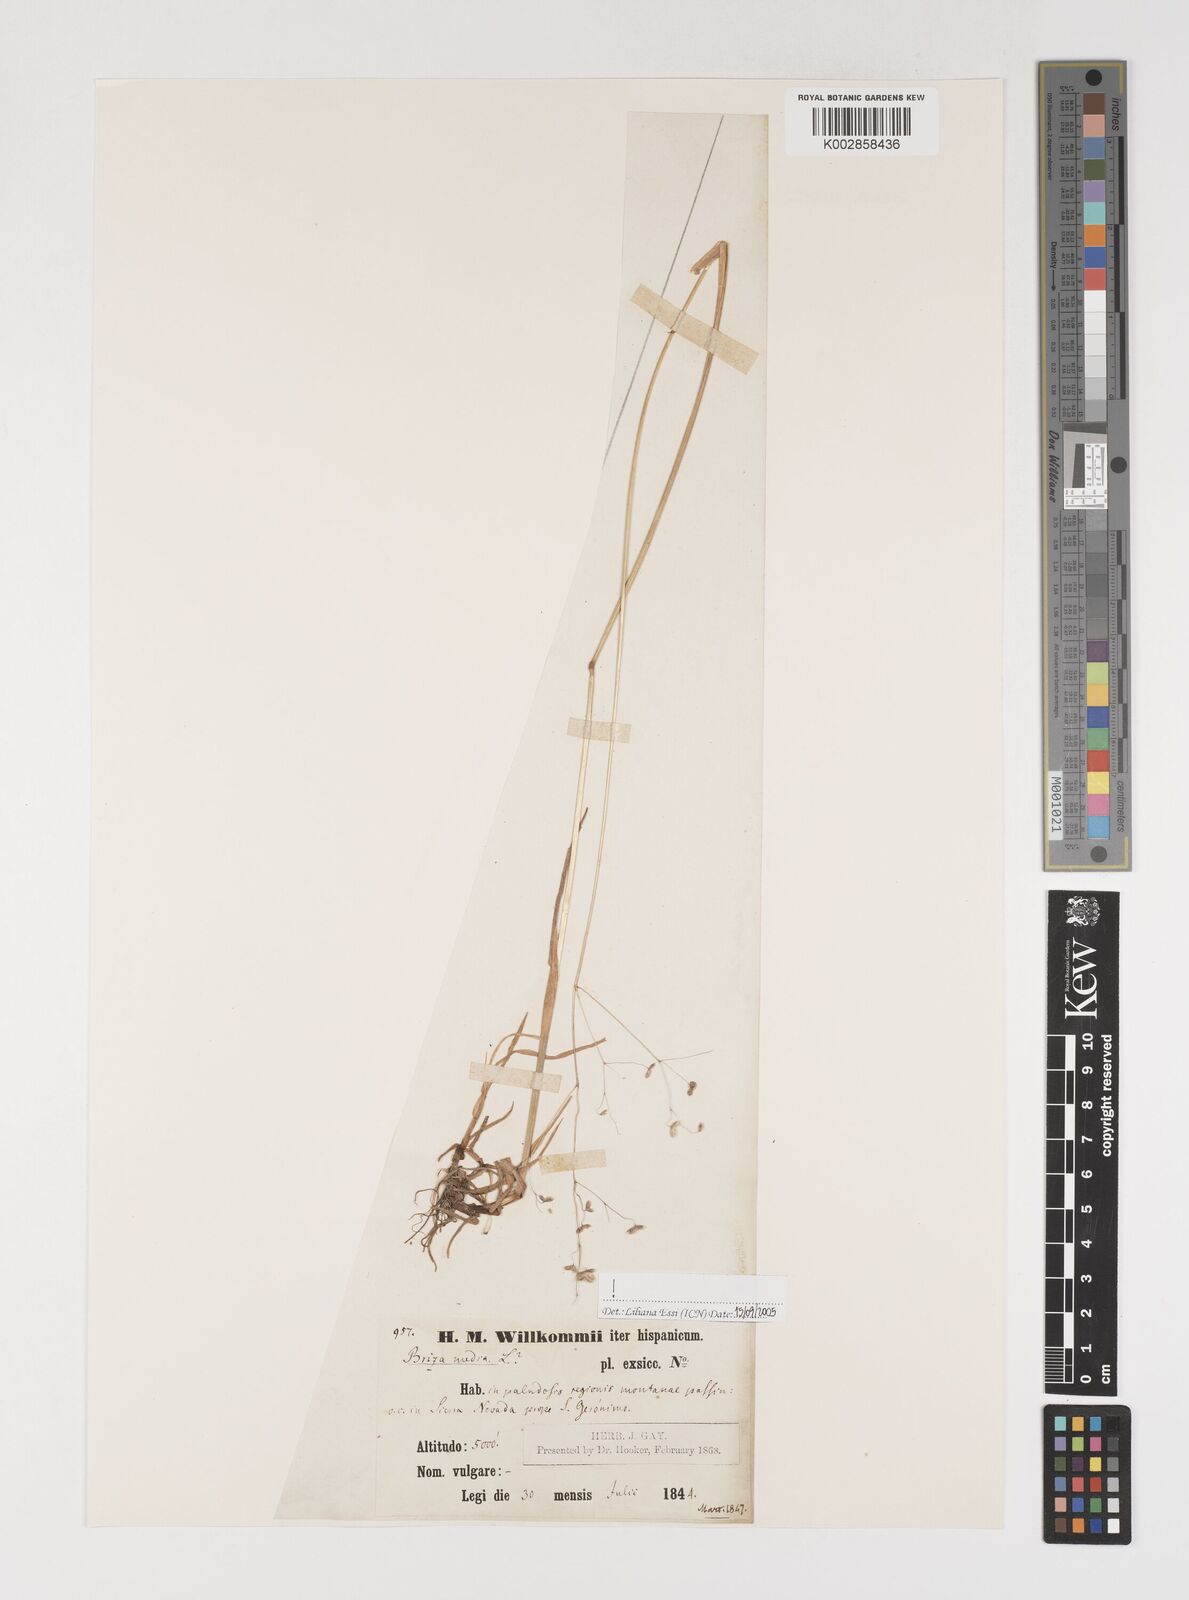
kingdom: Plantae
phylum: Tracheophyta
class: Liliopsida
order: Poales
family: Poaceae
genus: Briza
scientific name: Briza media
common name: Quaking grass
